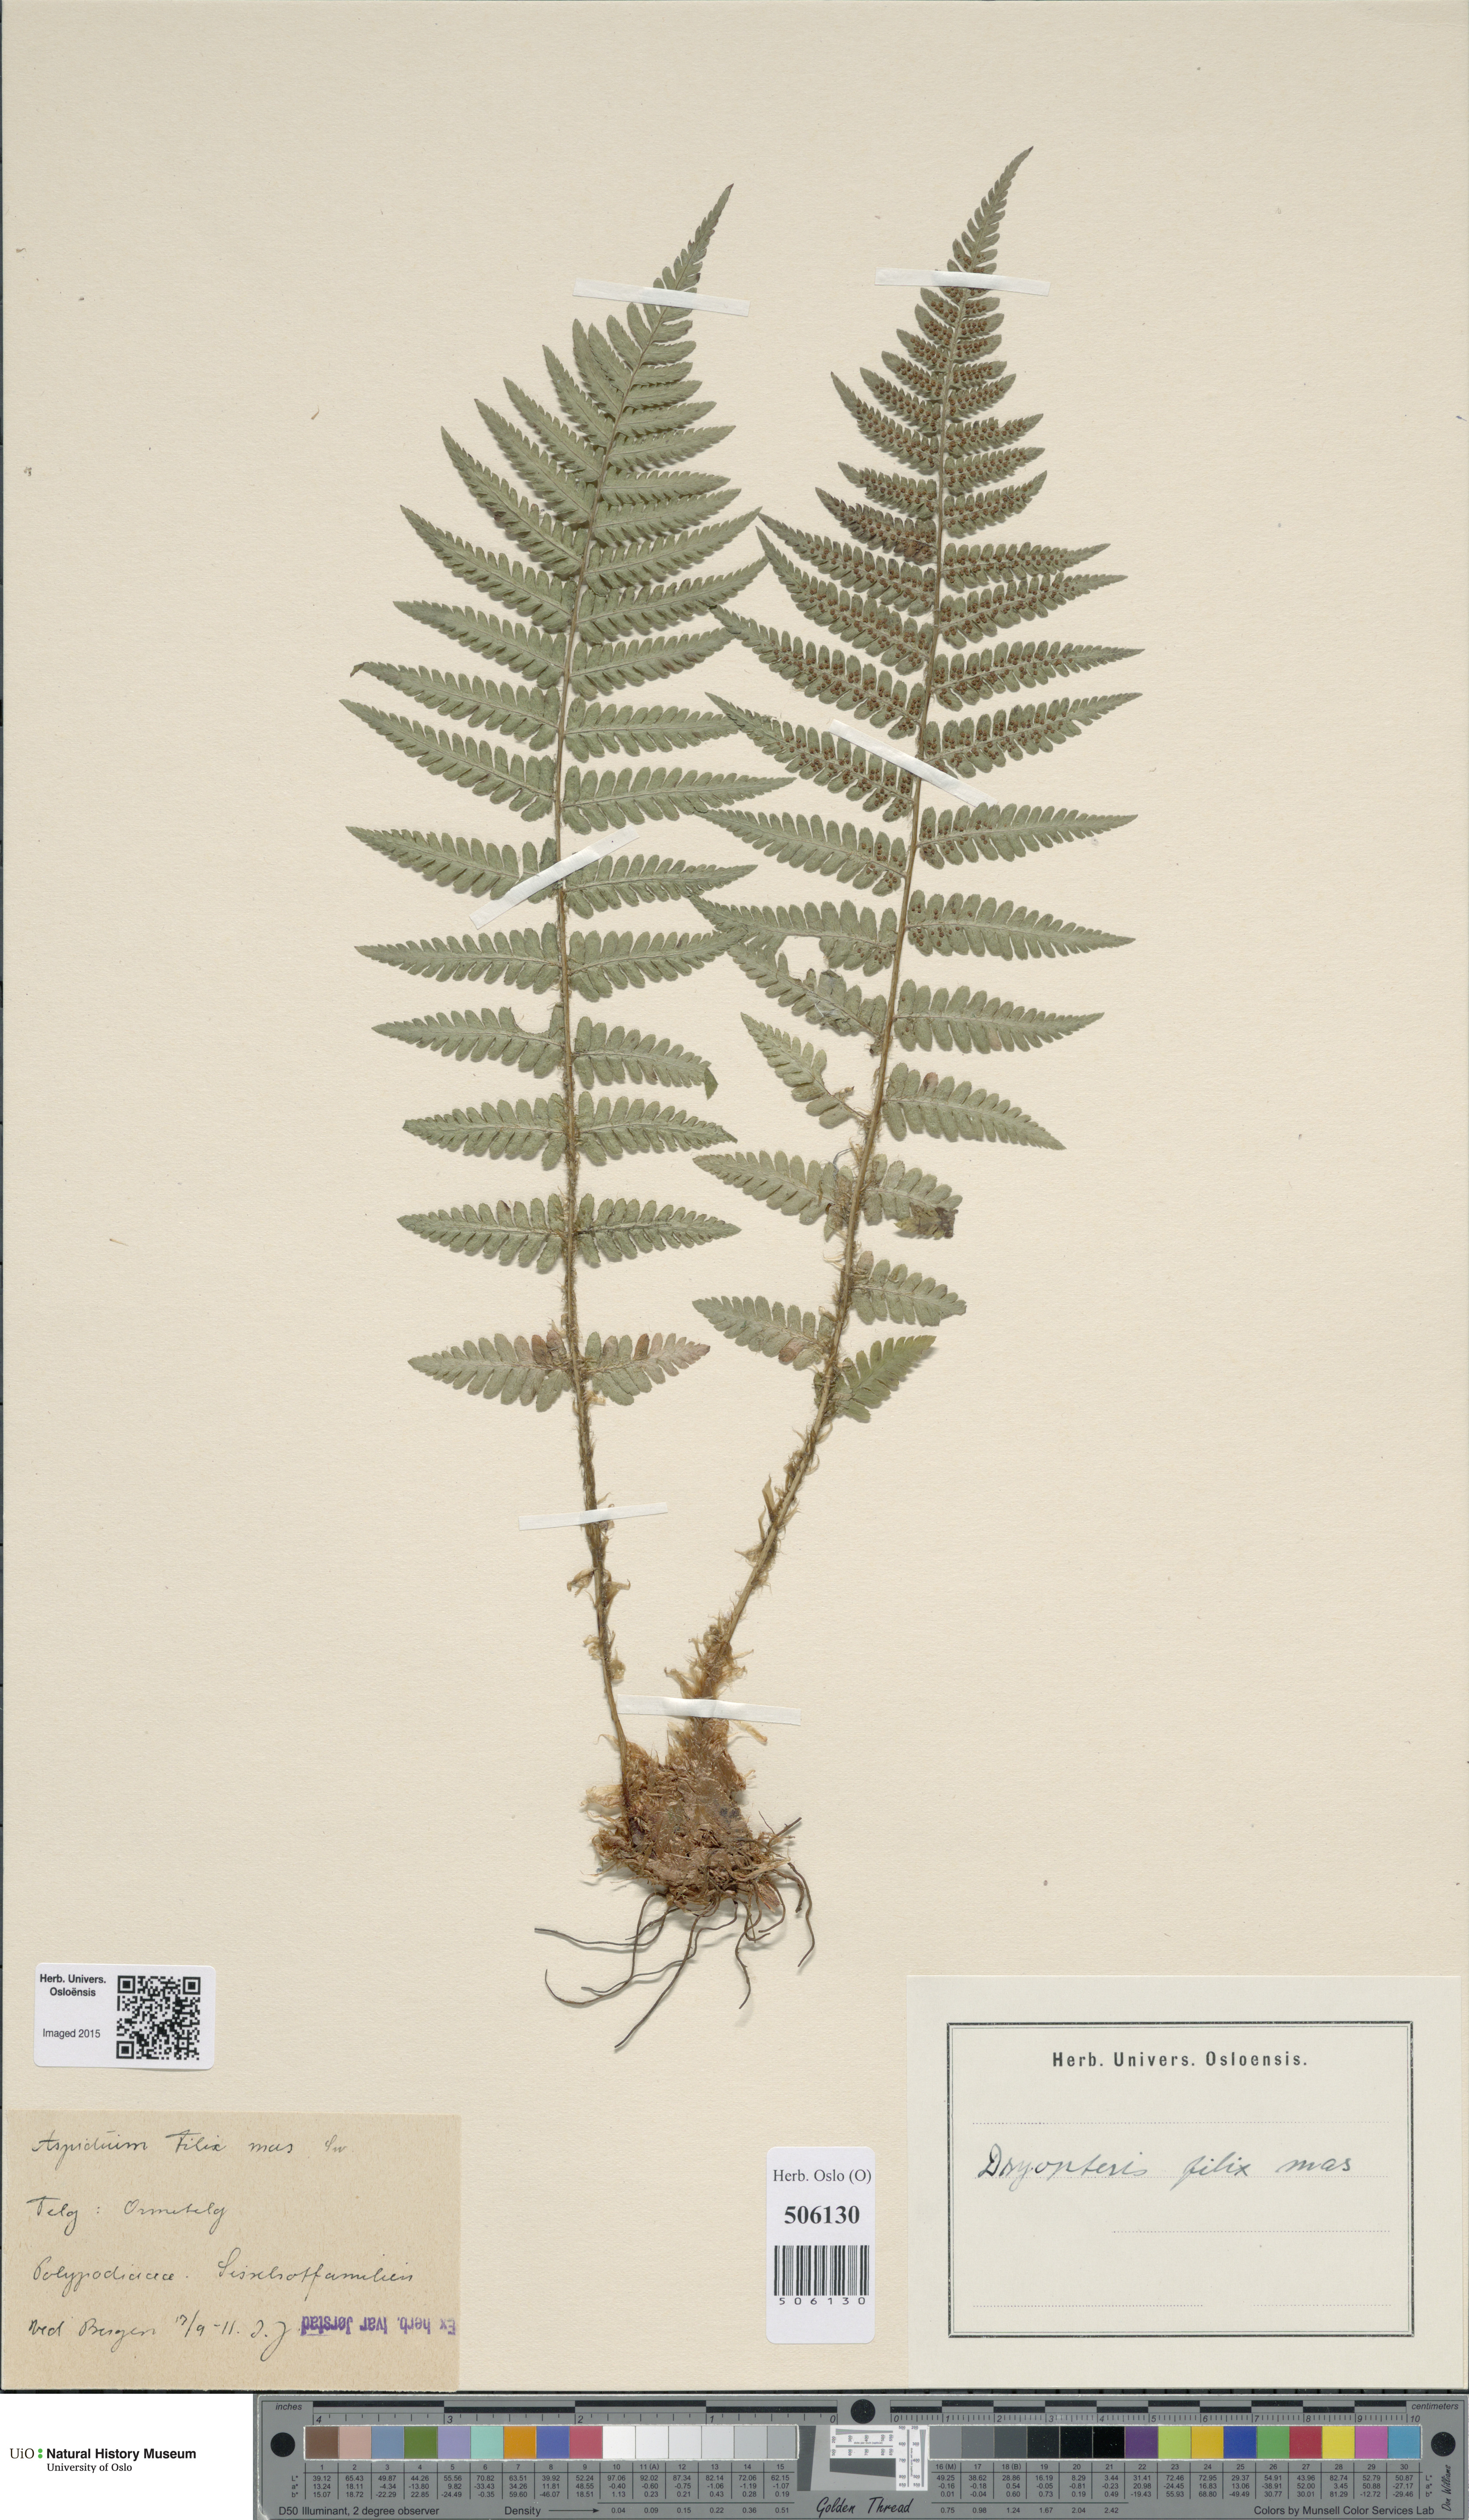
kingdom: Plantae
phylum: Tracheophyta
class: Polypodiopsida
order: Polypodiales
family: Dryopteridaceae
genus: Dryopteris
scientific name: Dryopteris filix-mas
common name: Male fern
